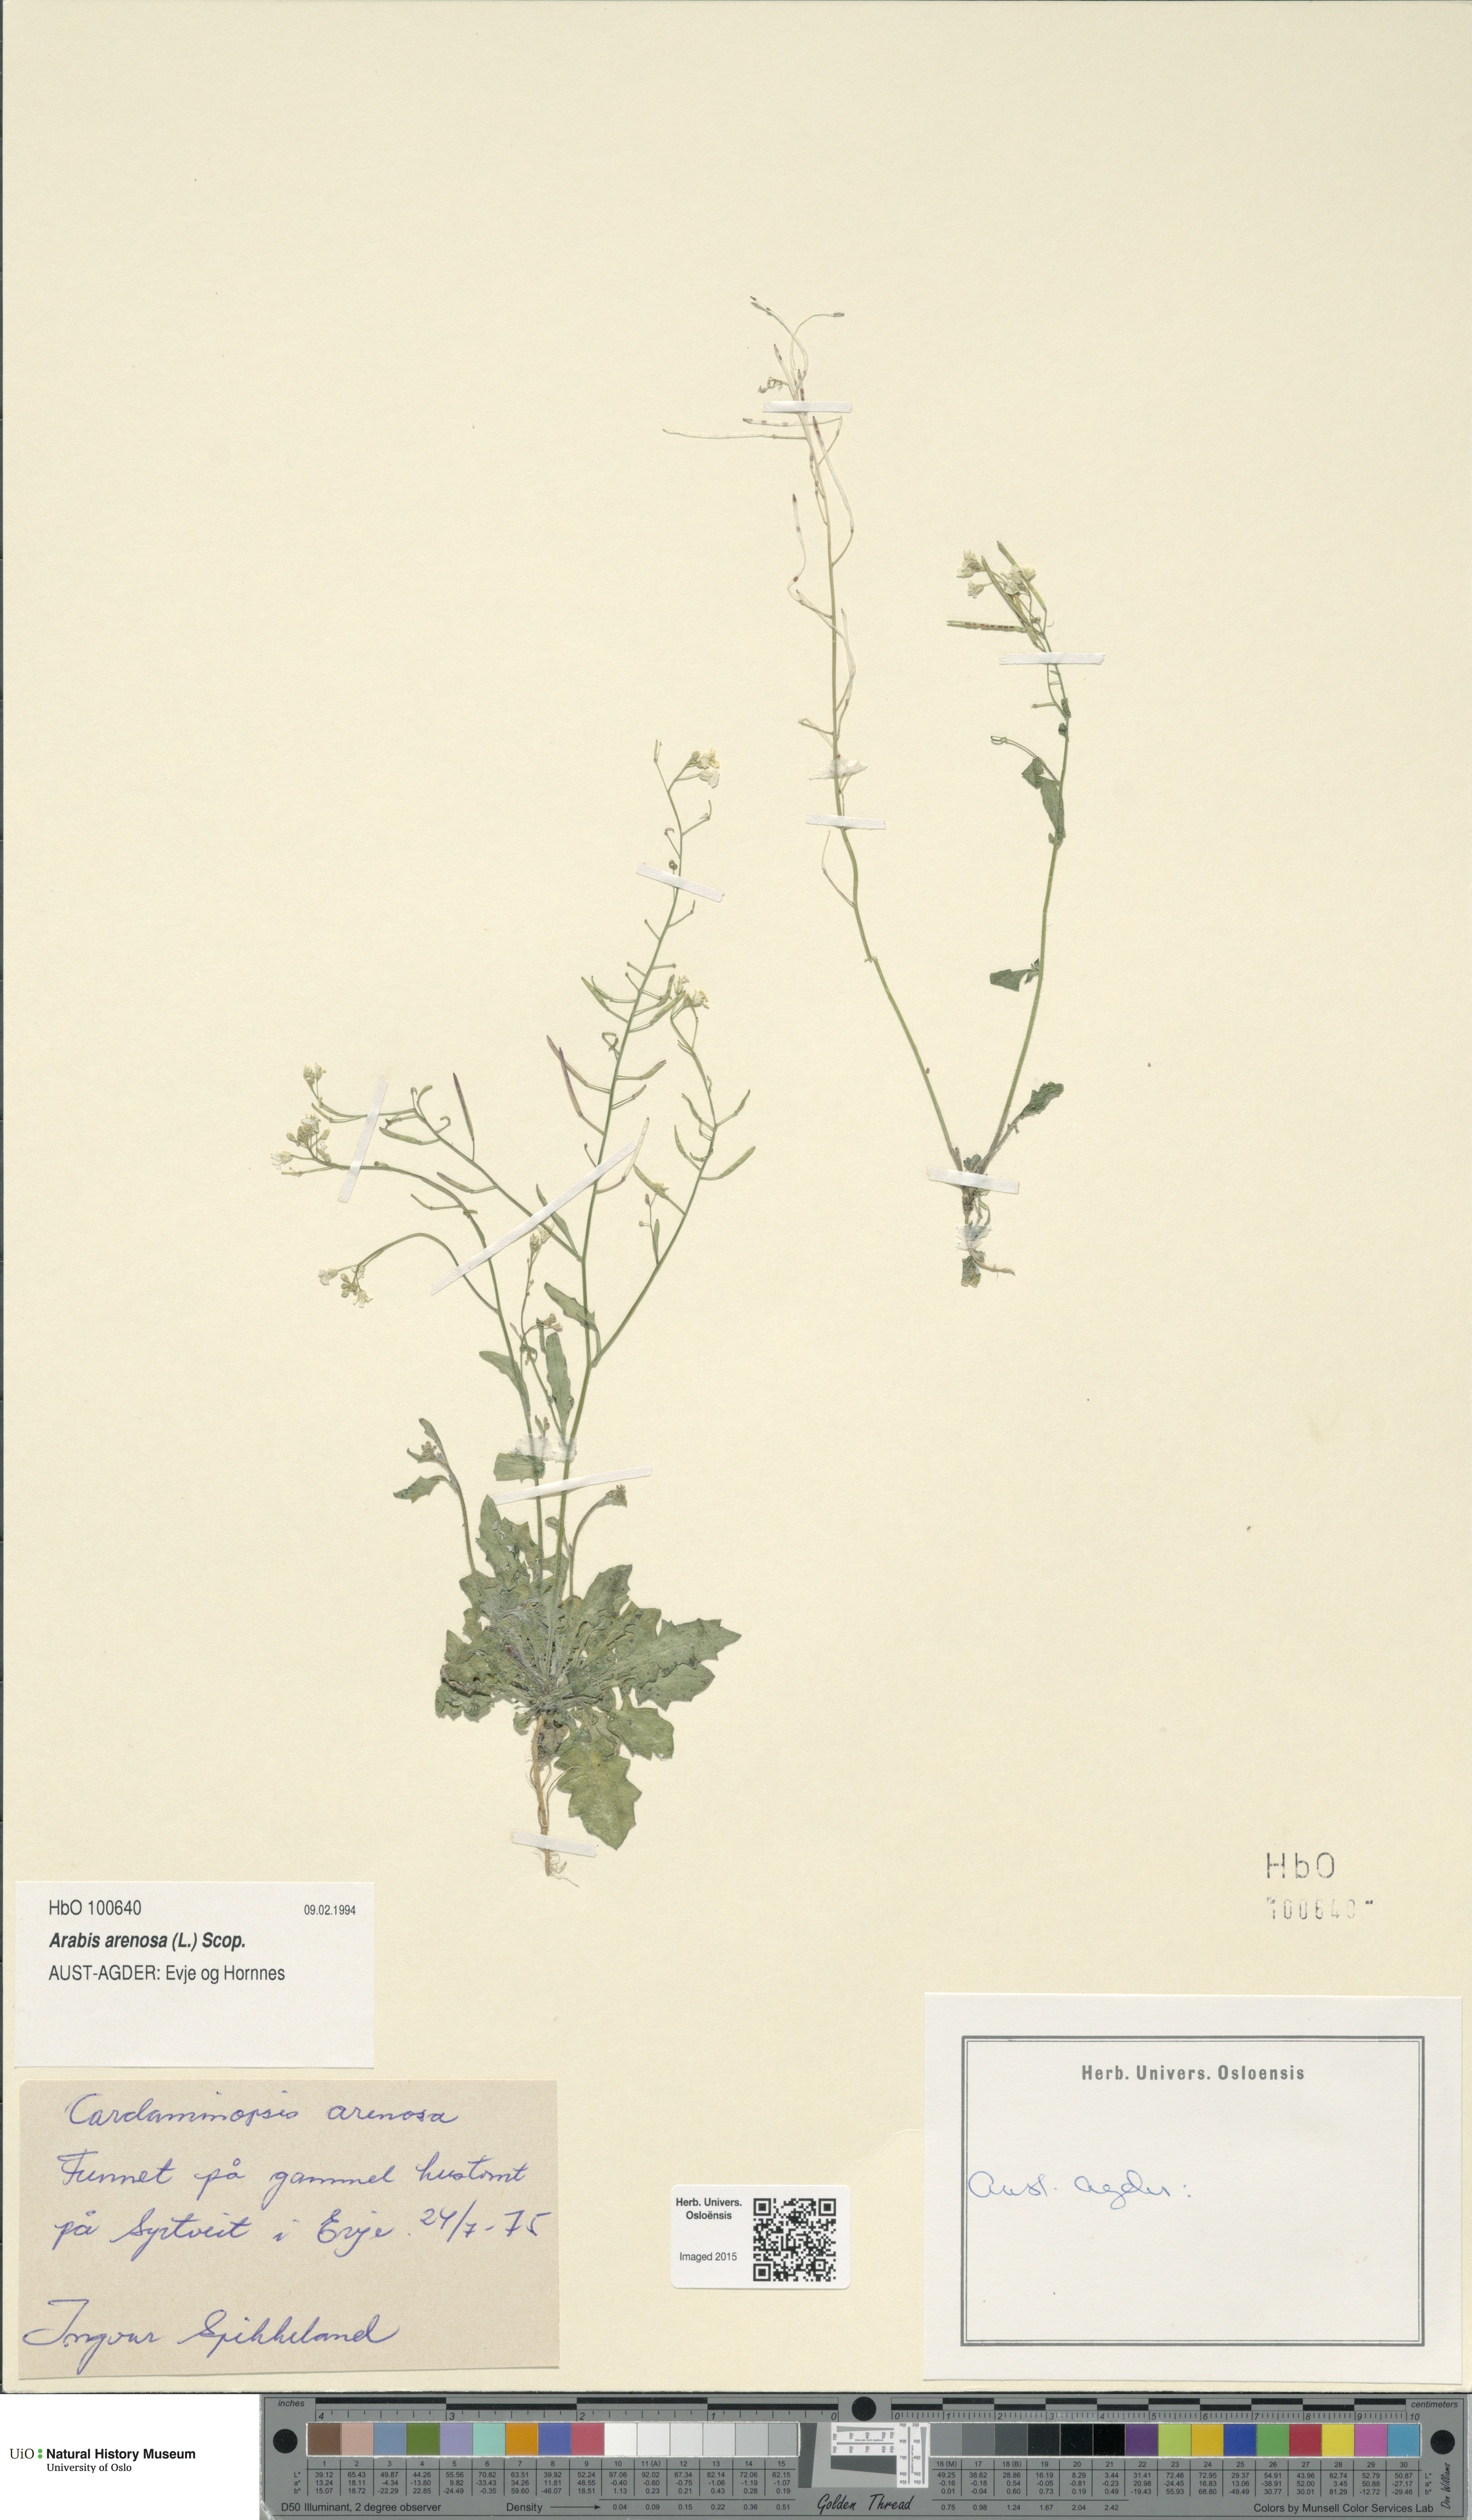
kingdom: Plantae
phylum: Tracheophyta
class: Magnoliopsida
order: Brassicales
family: Brassicaceae
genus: Arabidopsis
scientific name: Arabidopsis arenosa
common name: Sand rock-cress
